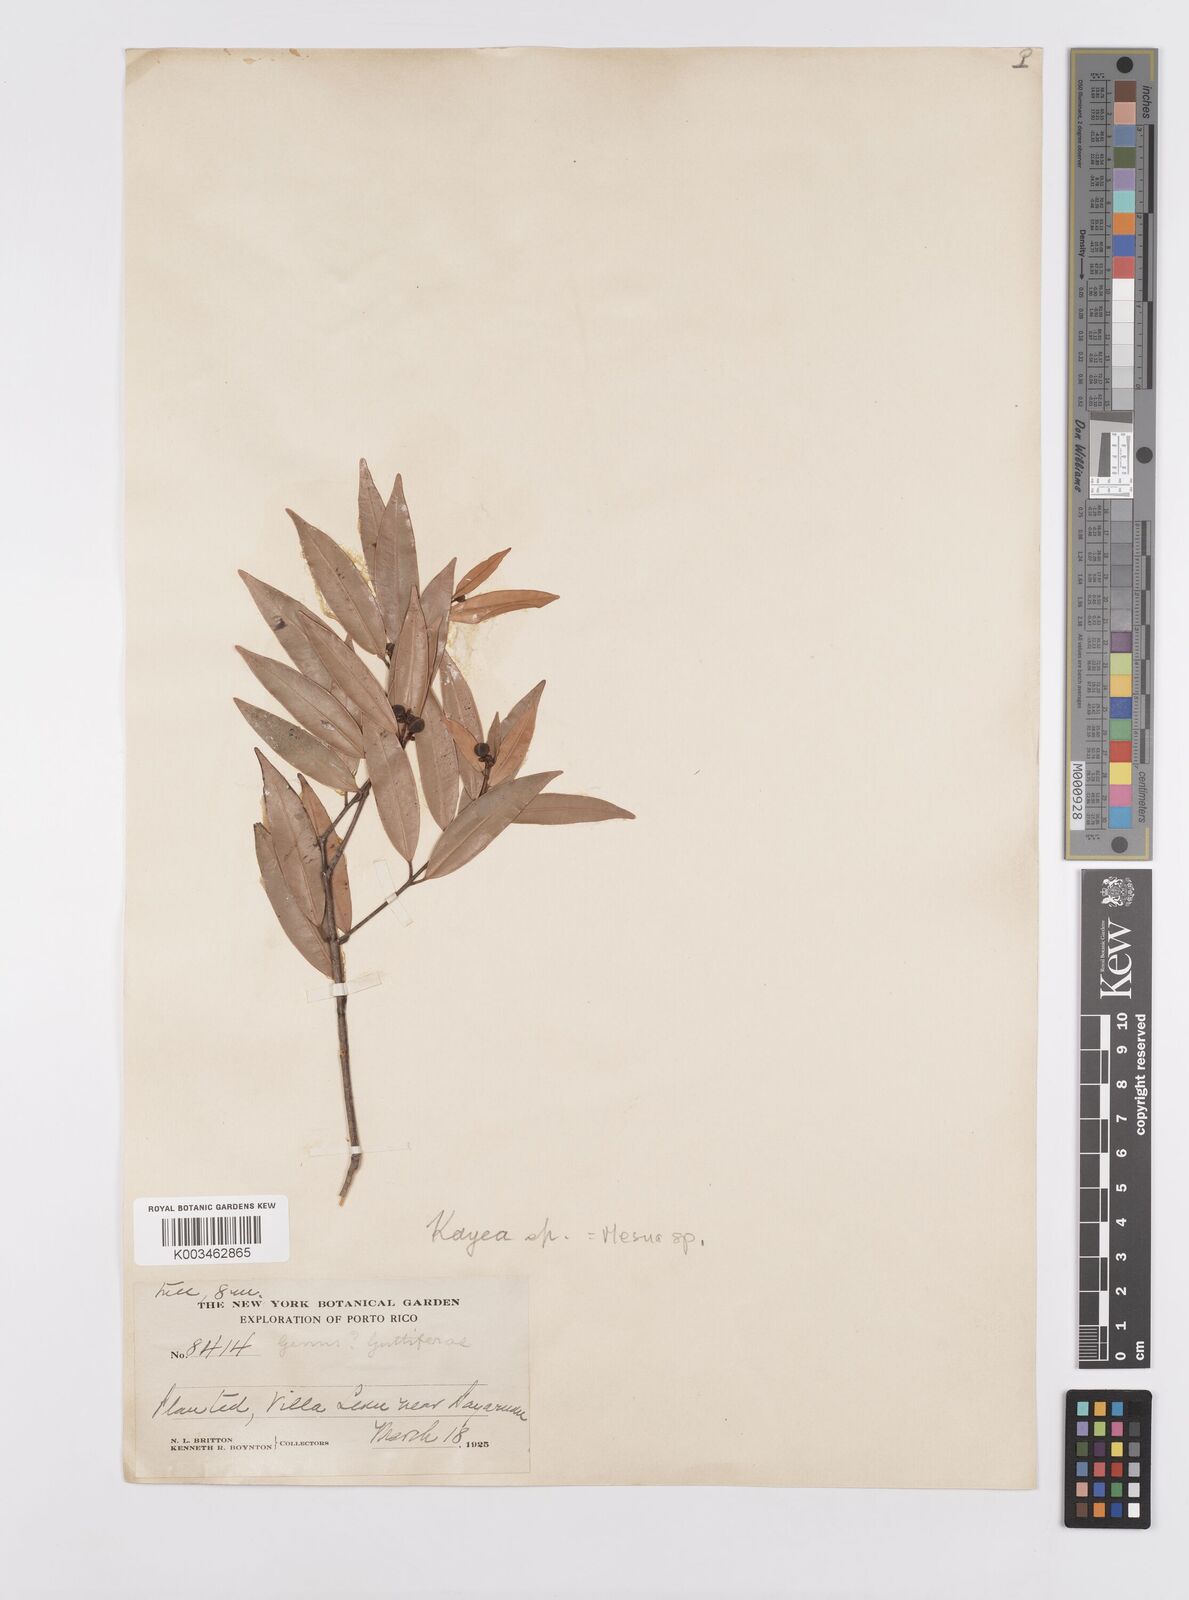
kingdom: Plantae
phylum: Tracheophyta
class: Magnoliopsida
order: Malpighiales
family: Calophyllaceae
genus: Mesua
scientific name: Mesua
